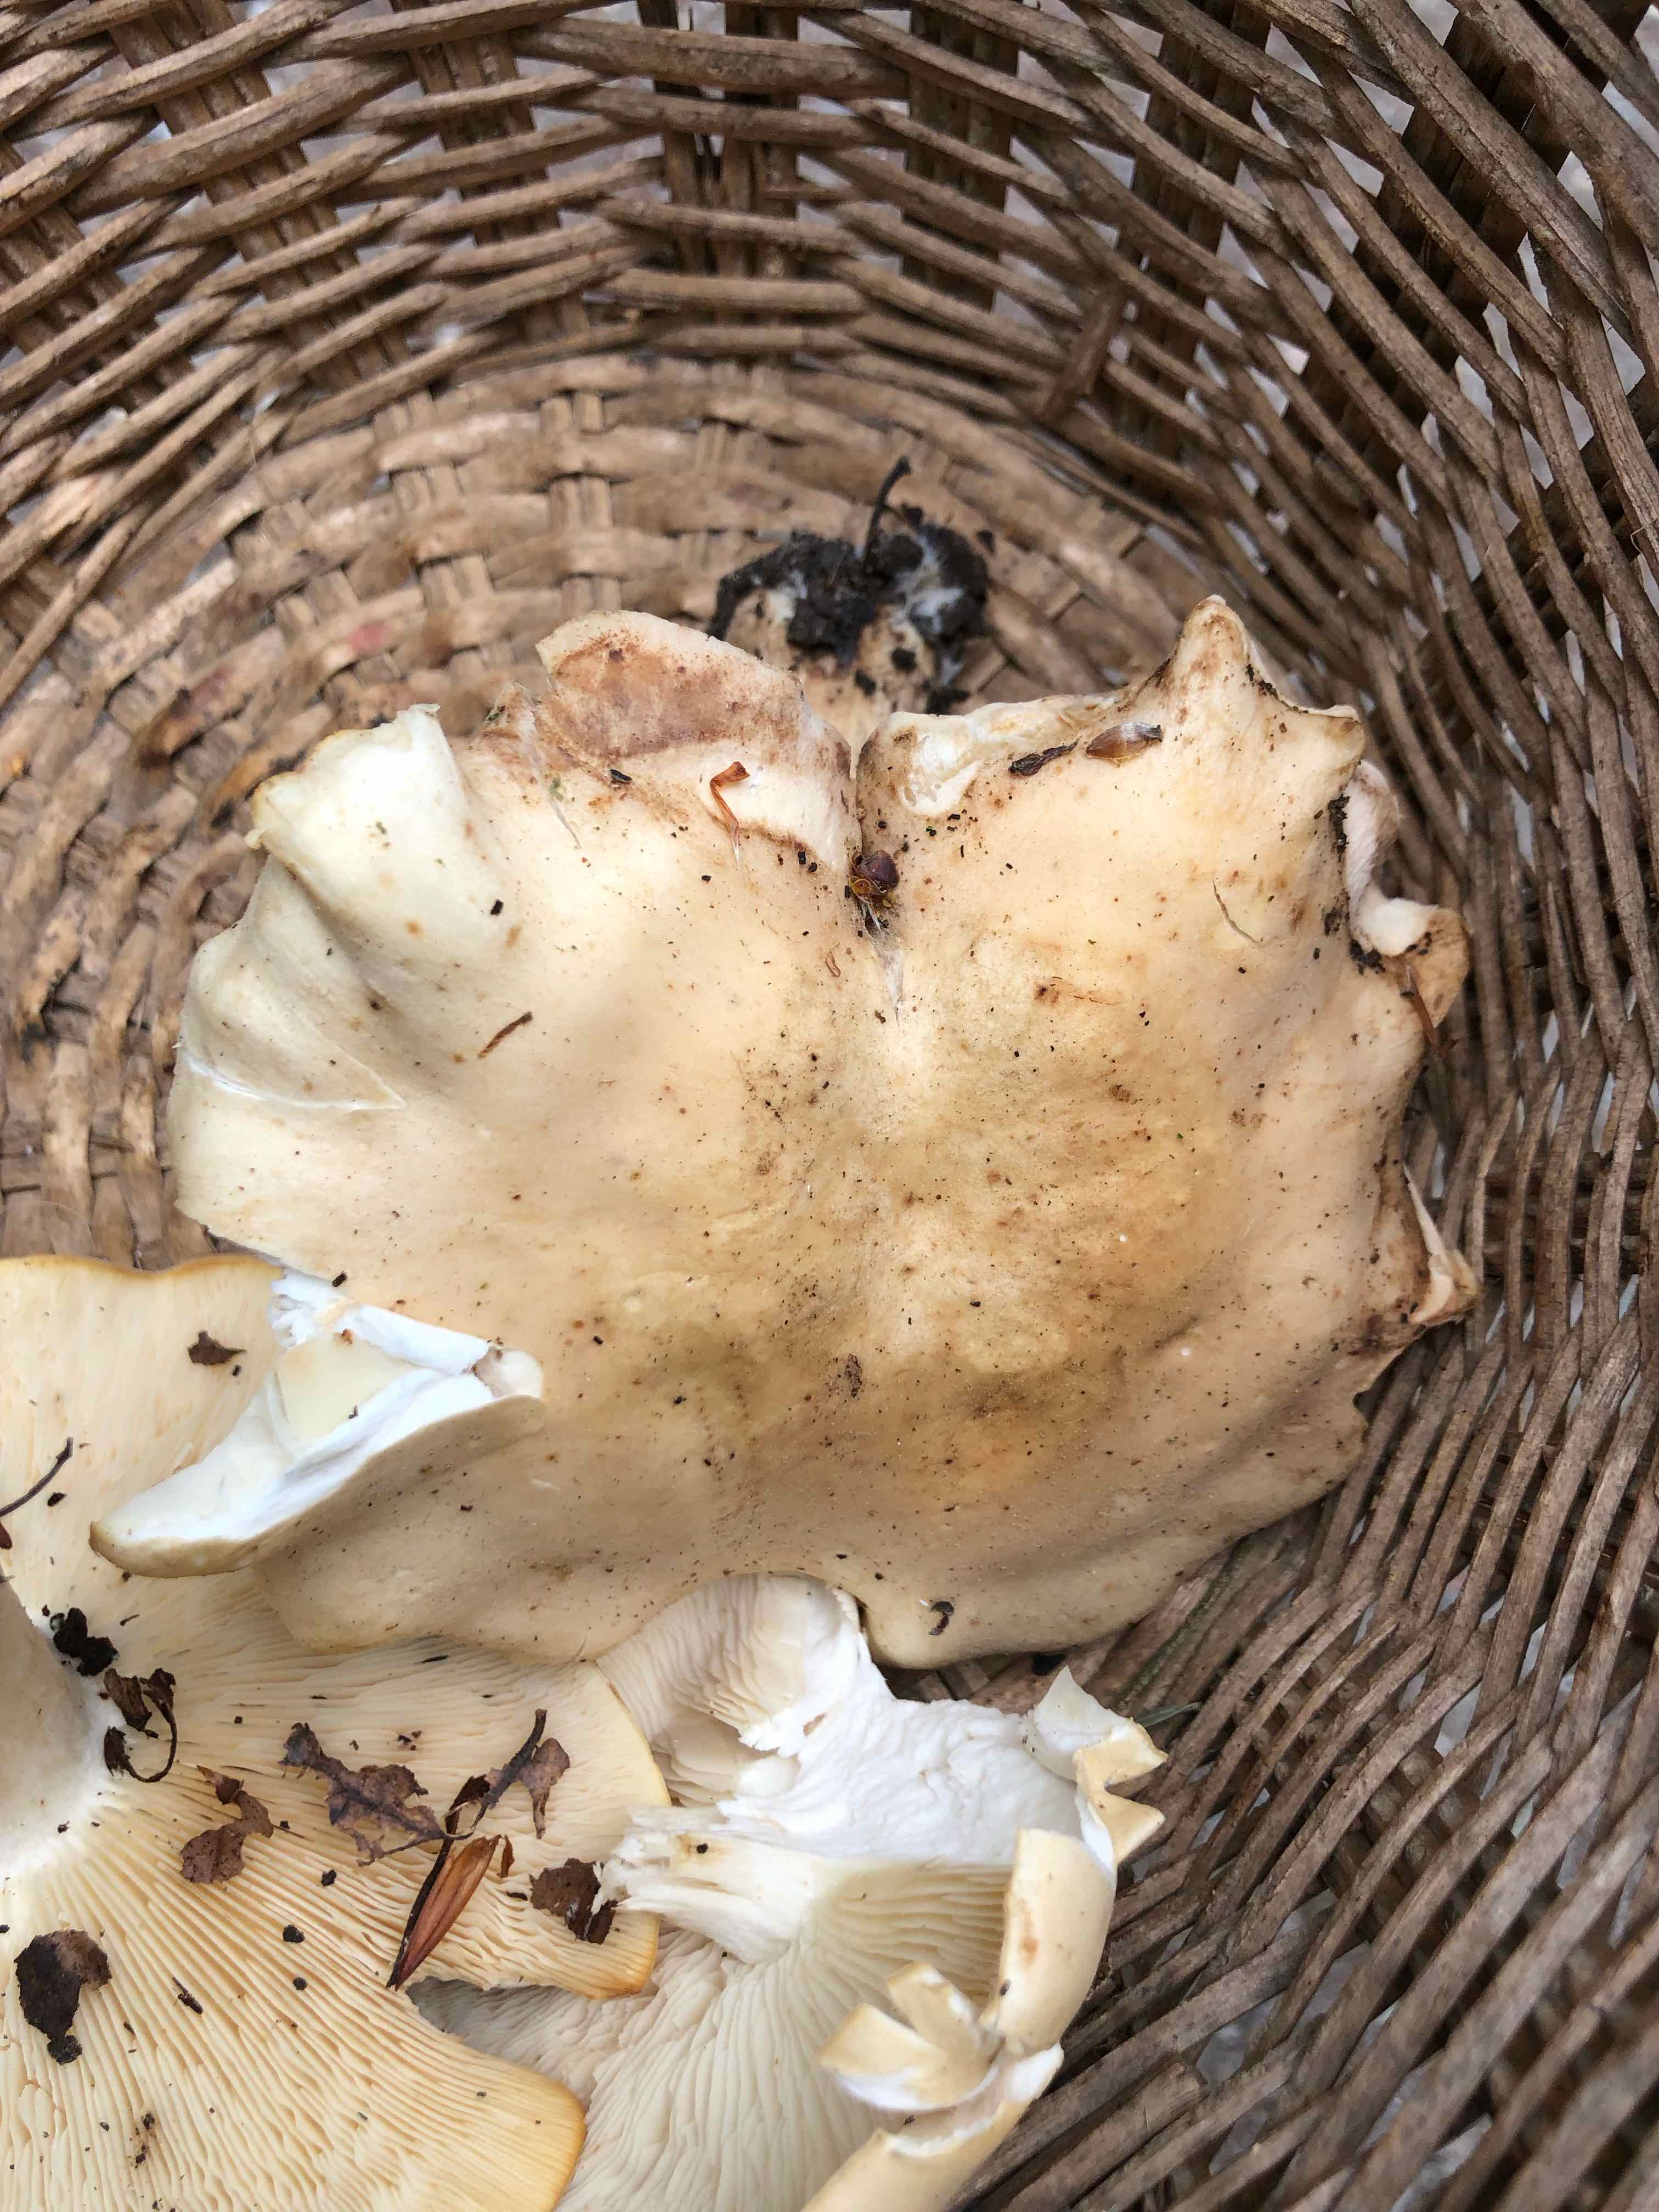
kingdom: Fungi
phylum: Basidiomycota
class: Agaricomycetes
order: Agaricales
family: Lyophyllaceae
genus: Calocybe
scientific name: Calocybe gambosa
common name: vårmusseron
